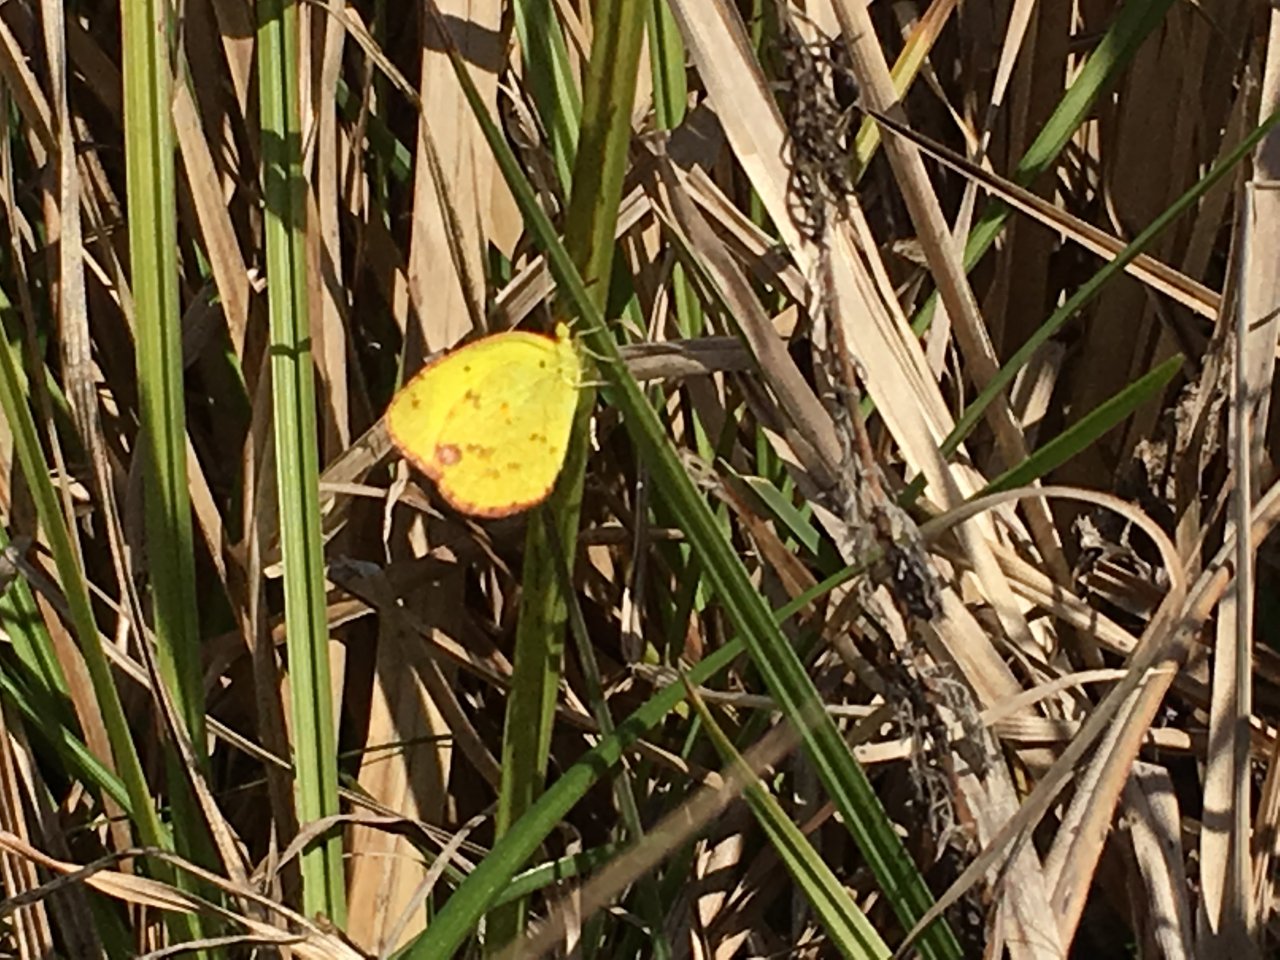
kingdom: Animalia
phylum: Arthropoda
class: Insecta
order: Lepidoptera
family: Pieridae
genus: Pyrisitia
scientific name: Pyrisitia lisa
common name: Little Yellow
